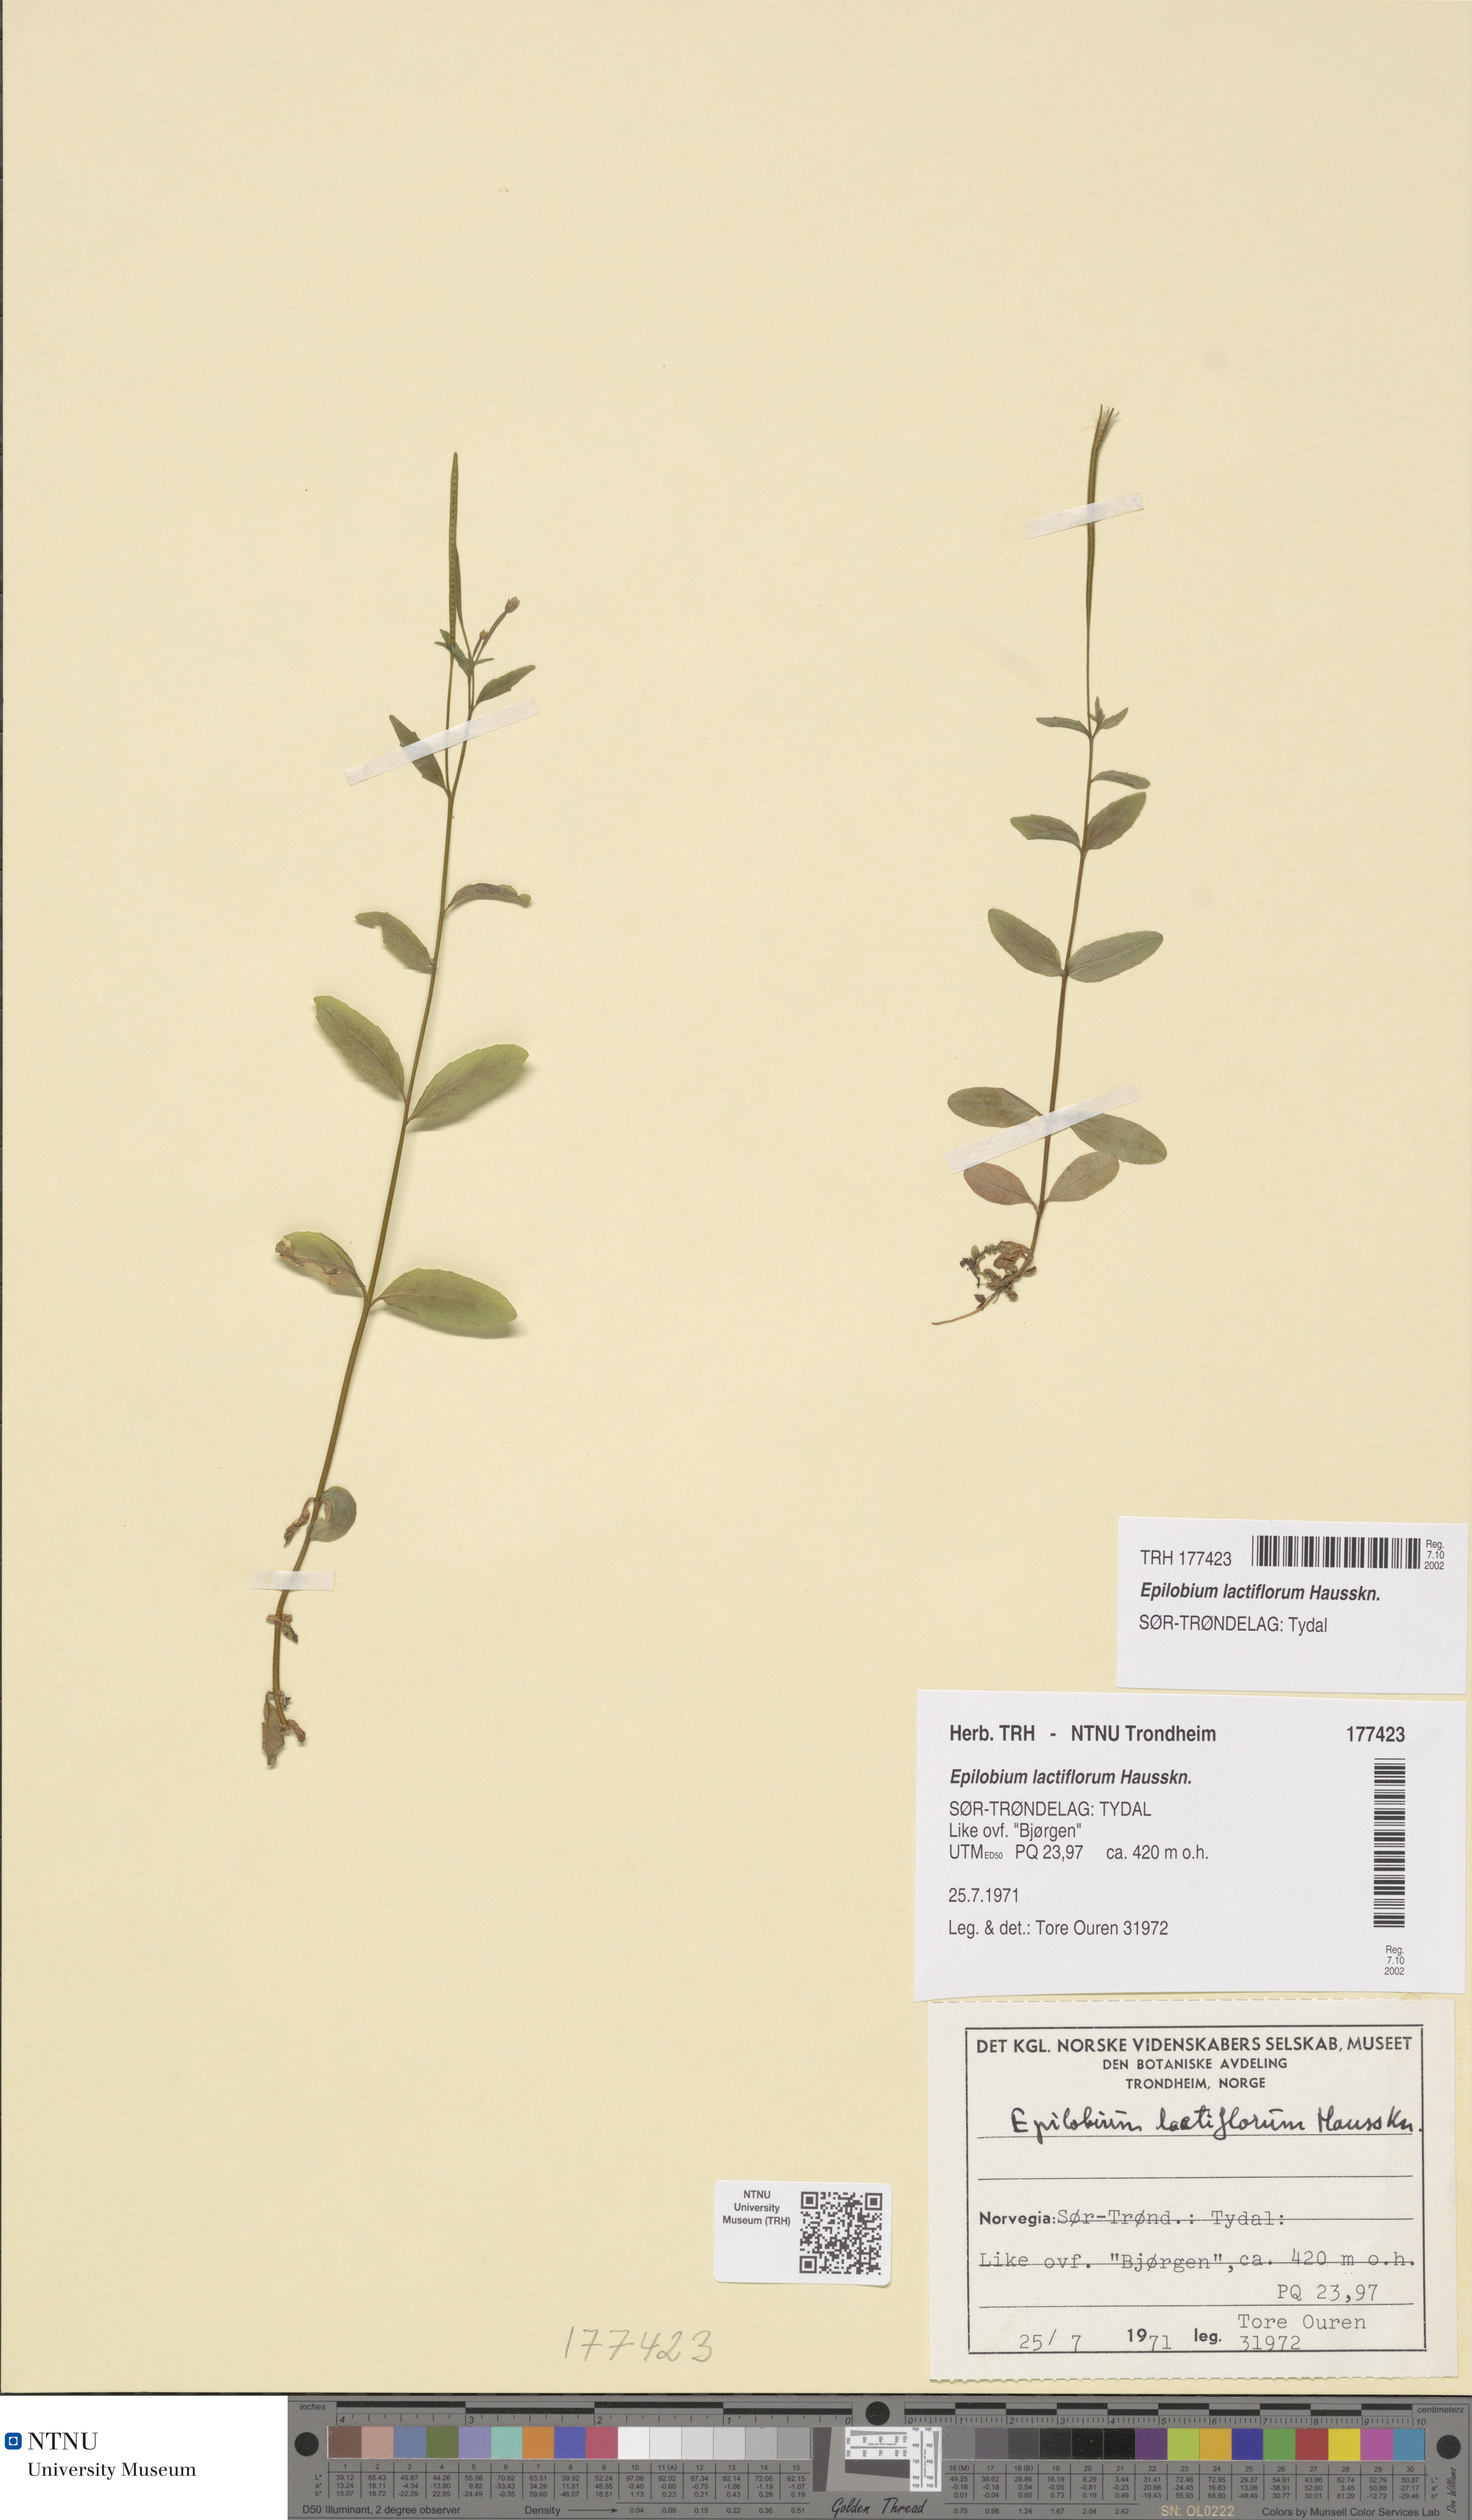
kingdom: Plantae
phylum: Tracheophyta
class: Magnoliopsida
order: Myrtales
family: Onagraceae
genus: Epilobium
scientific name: Epilobium lactiflorum
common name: Milkflower willowherb
